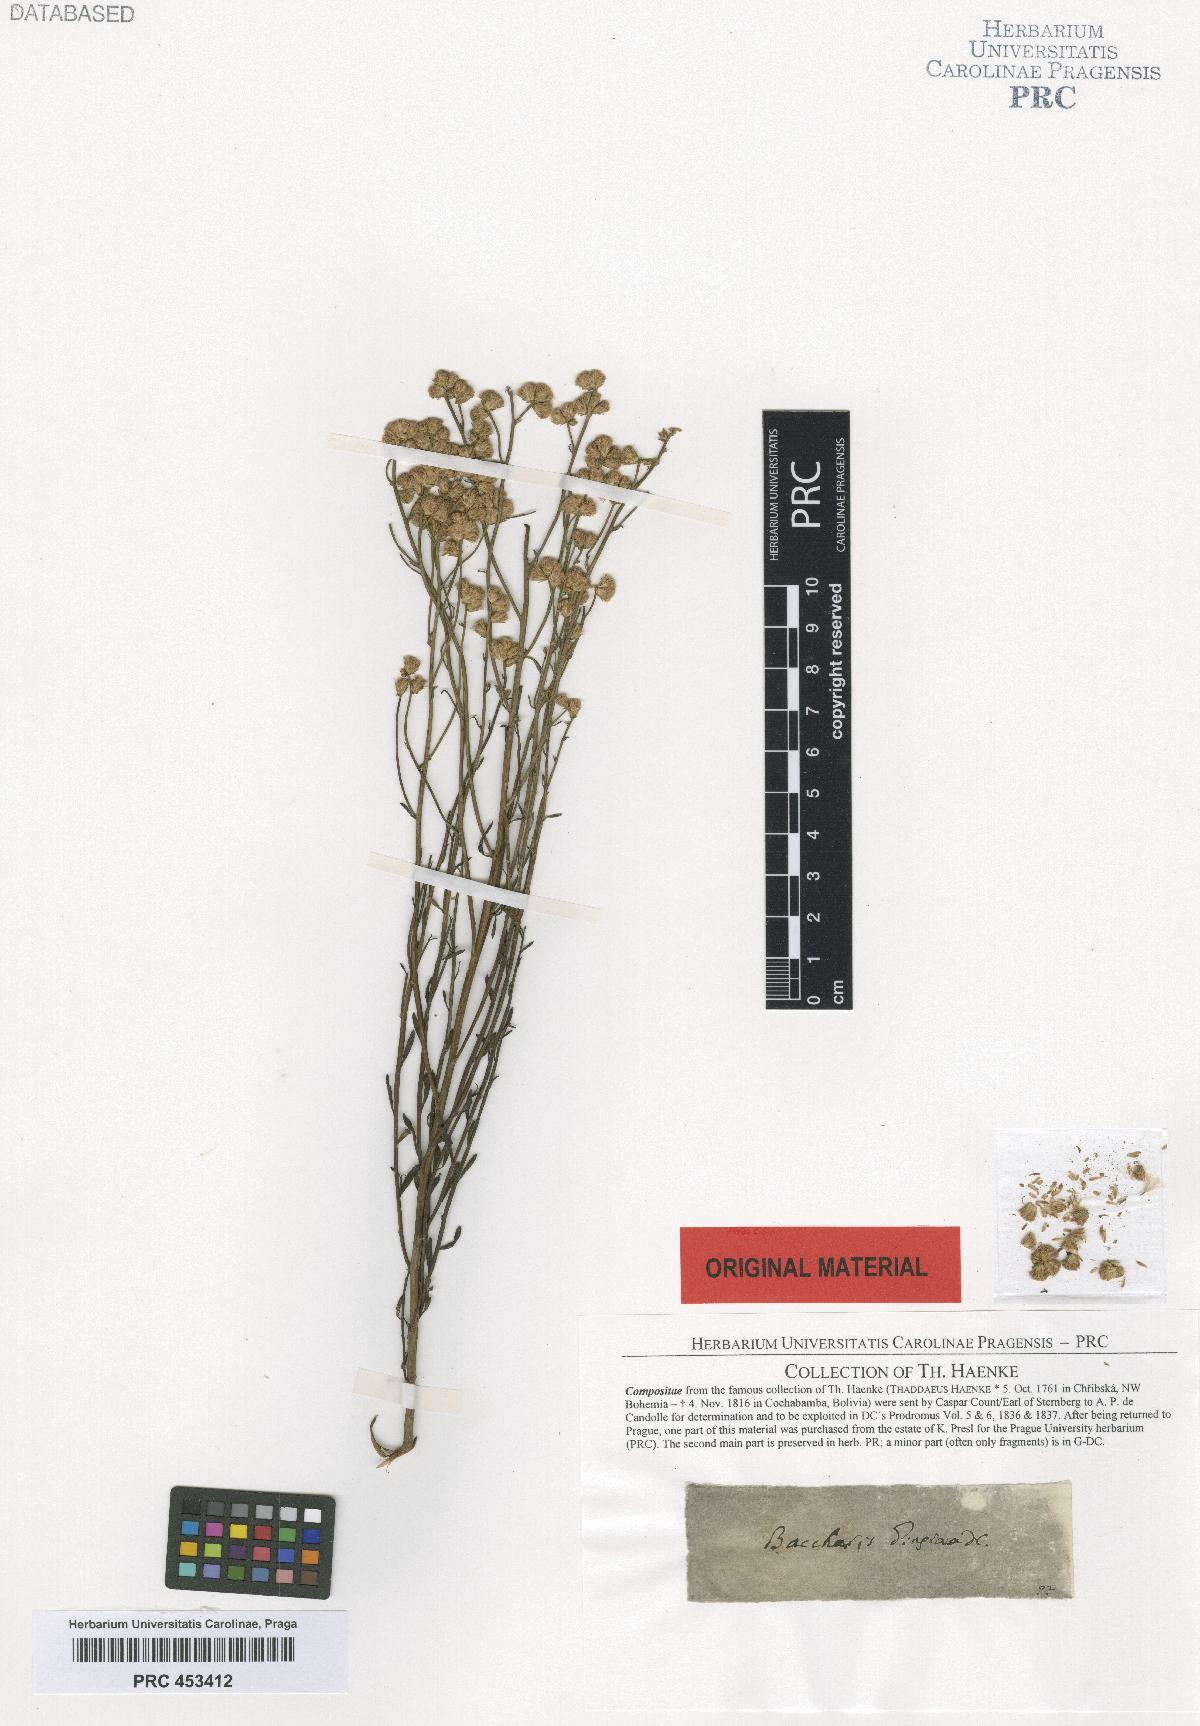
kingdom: Plantae
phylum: Tracheophyta
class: Magnoliopsida
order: Asterales
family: Asteraceae
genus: Baccharis
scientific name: Baccharis glutinosa
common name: Saltmarsh baccharis
